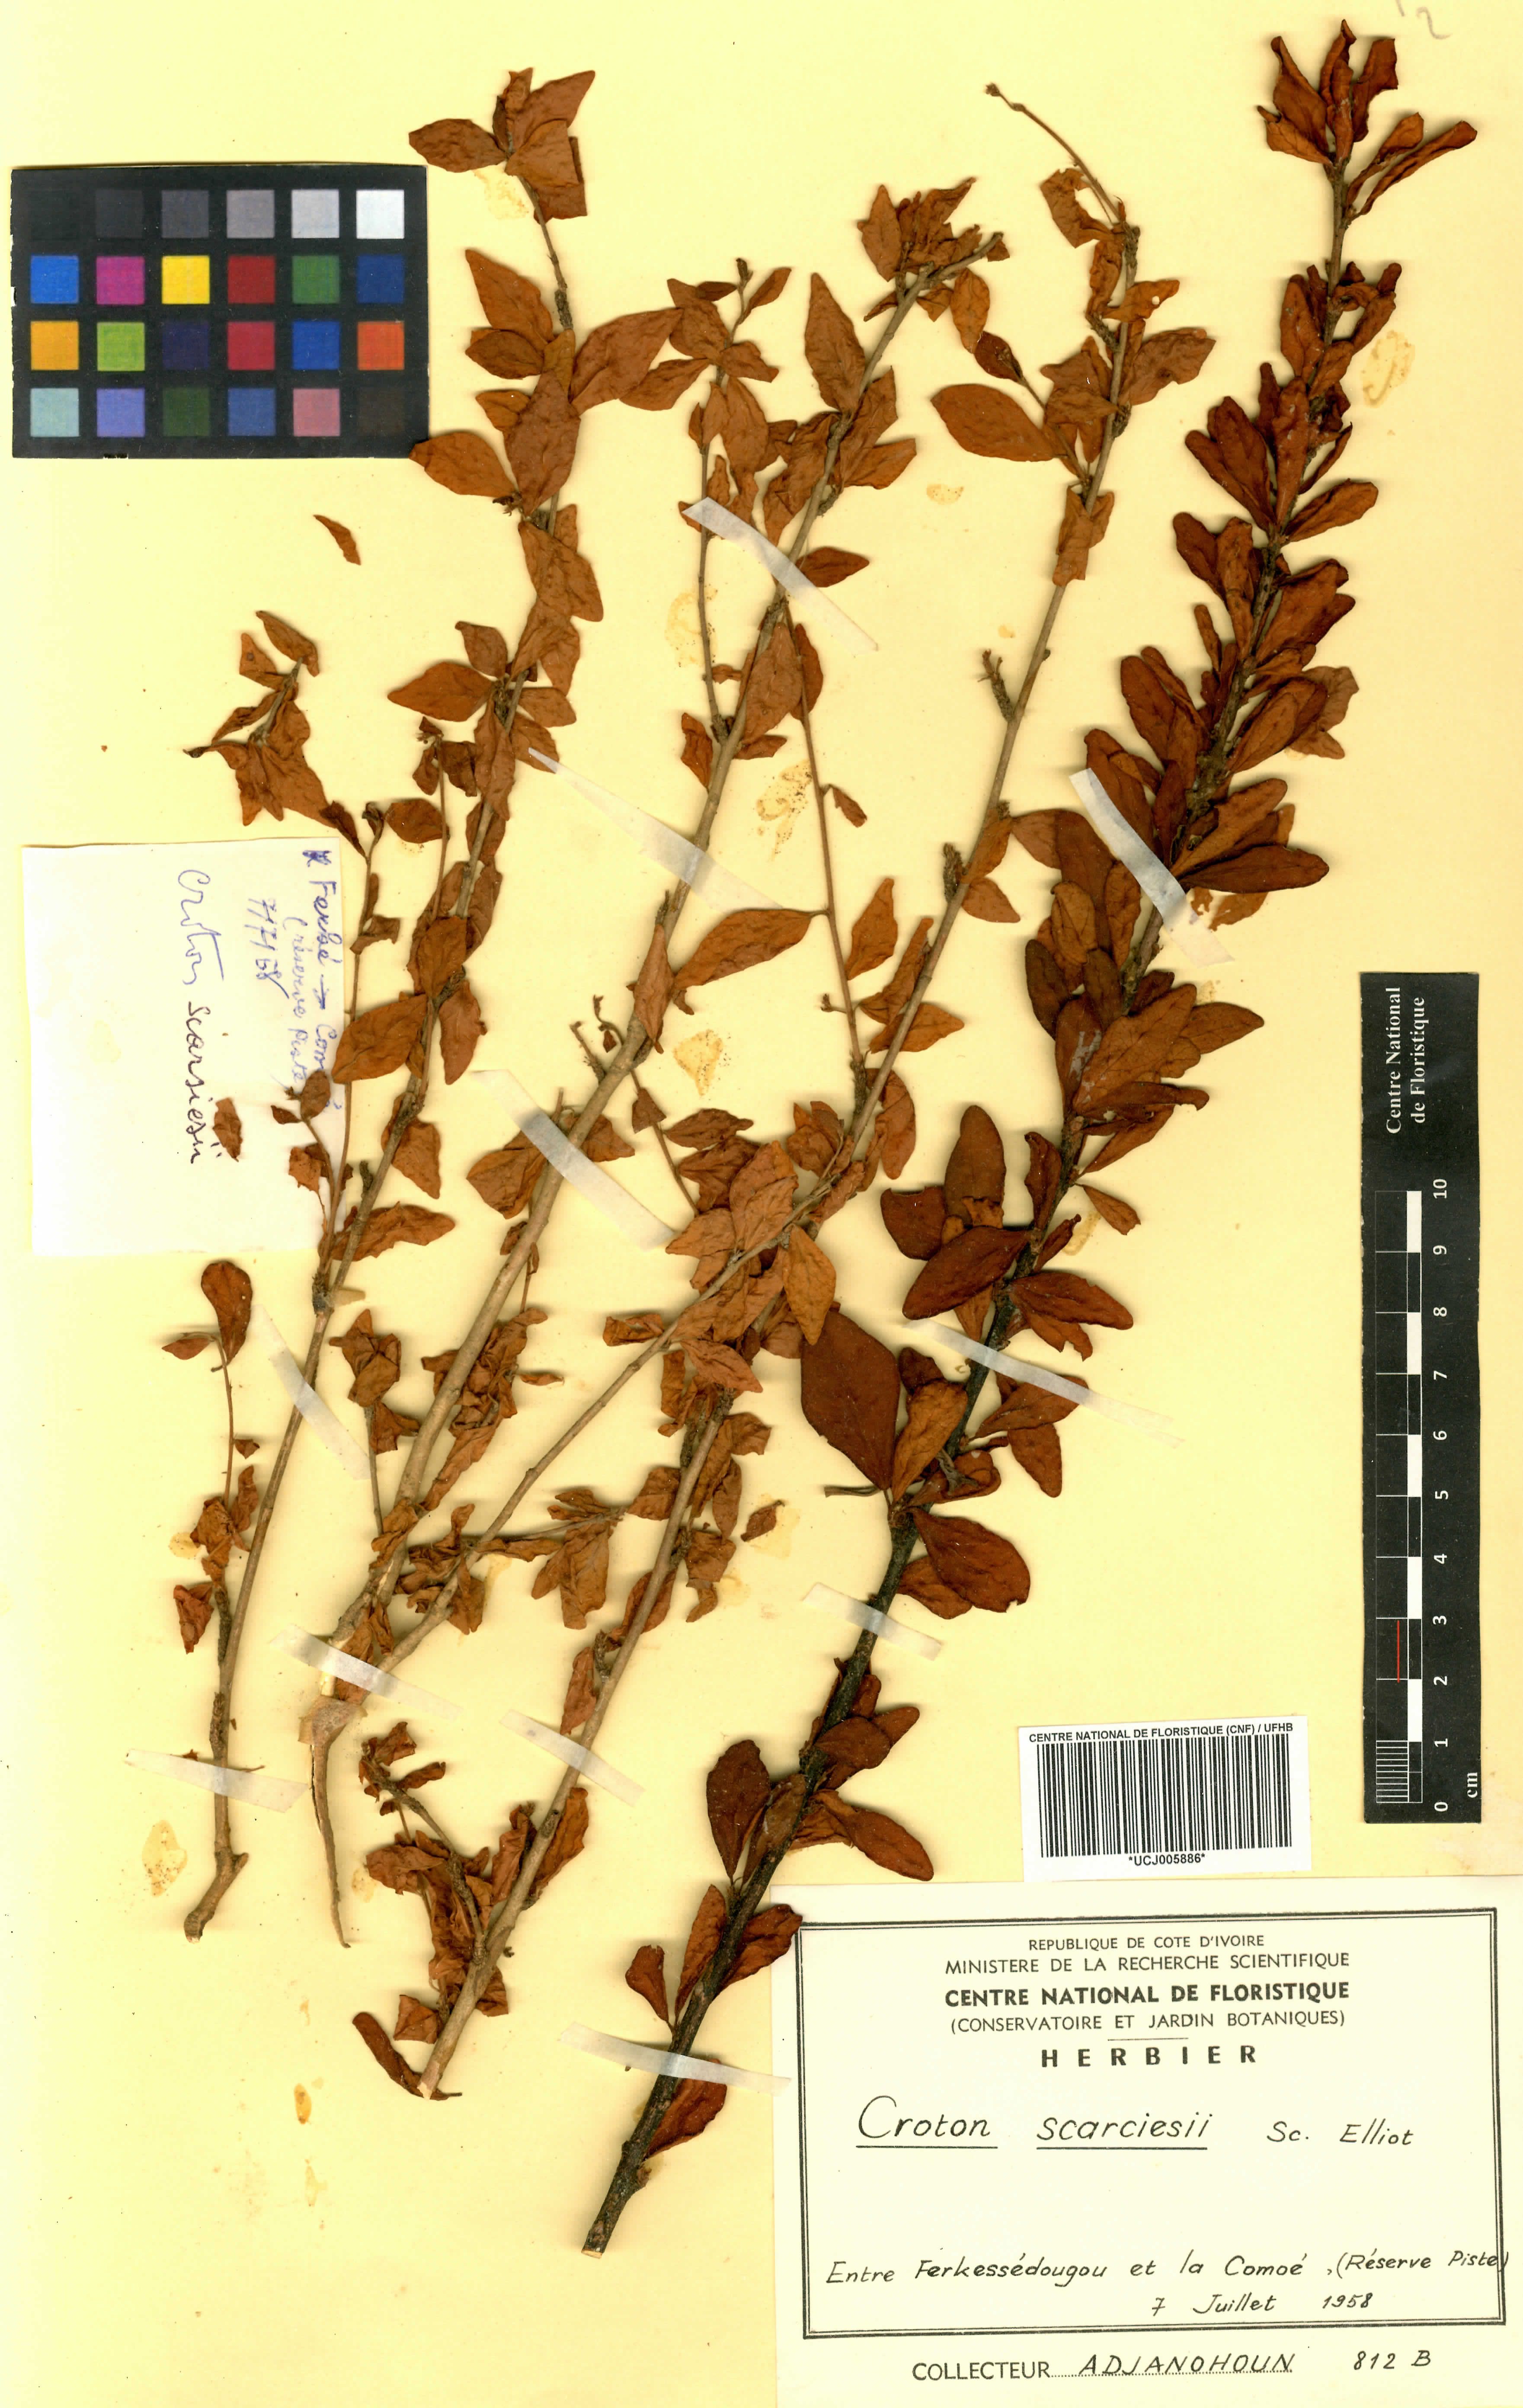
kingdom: Plantae
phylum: Tracheophyta
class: Magnoliopsida
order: Malpighiales
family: Euphorbiaceae
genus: Karima
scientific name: Karima scarciesii
